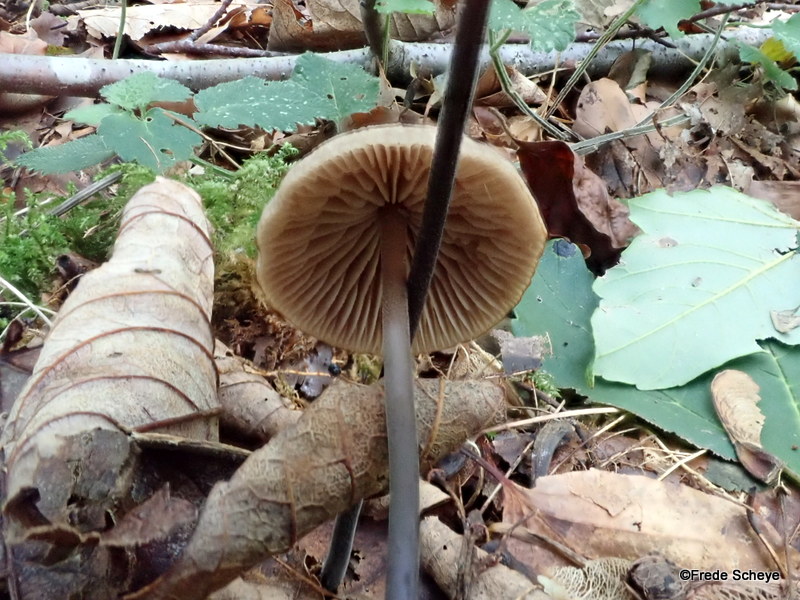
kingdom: Fungi
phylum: Basidiomycota
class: Agaricomycetes
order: Agaricales
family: Omphalotaceae
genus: Mycetinis
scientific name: Mycetinis alliaceus
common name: stor løghat
